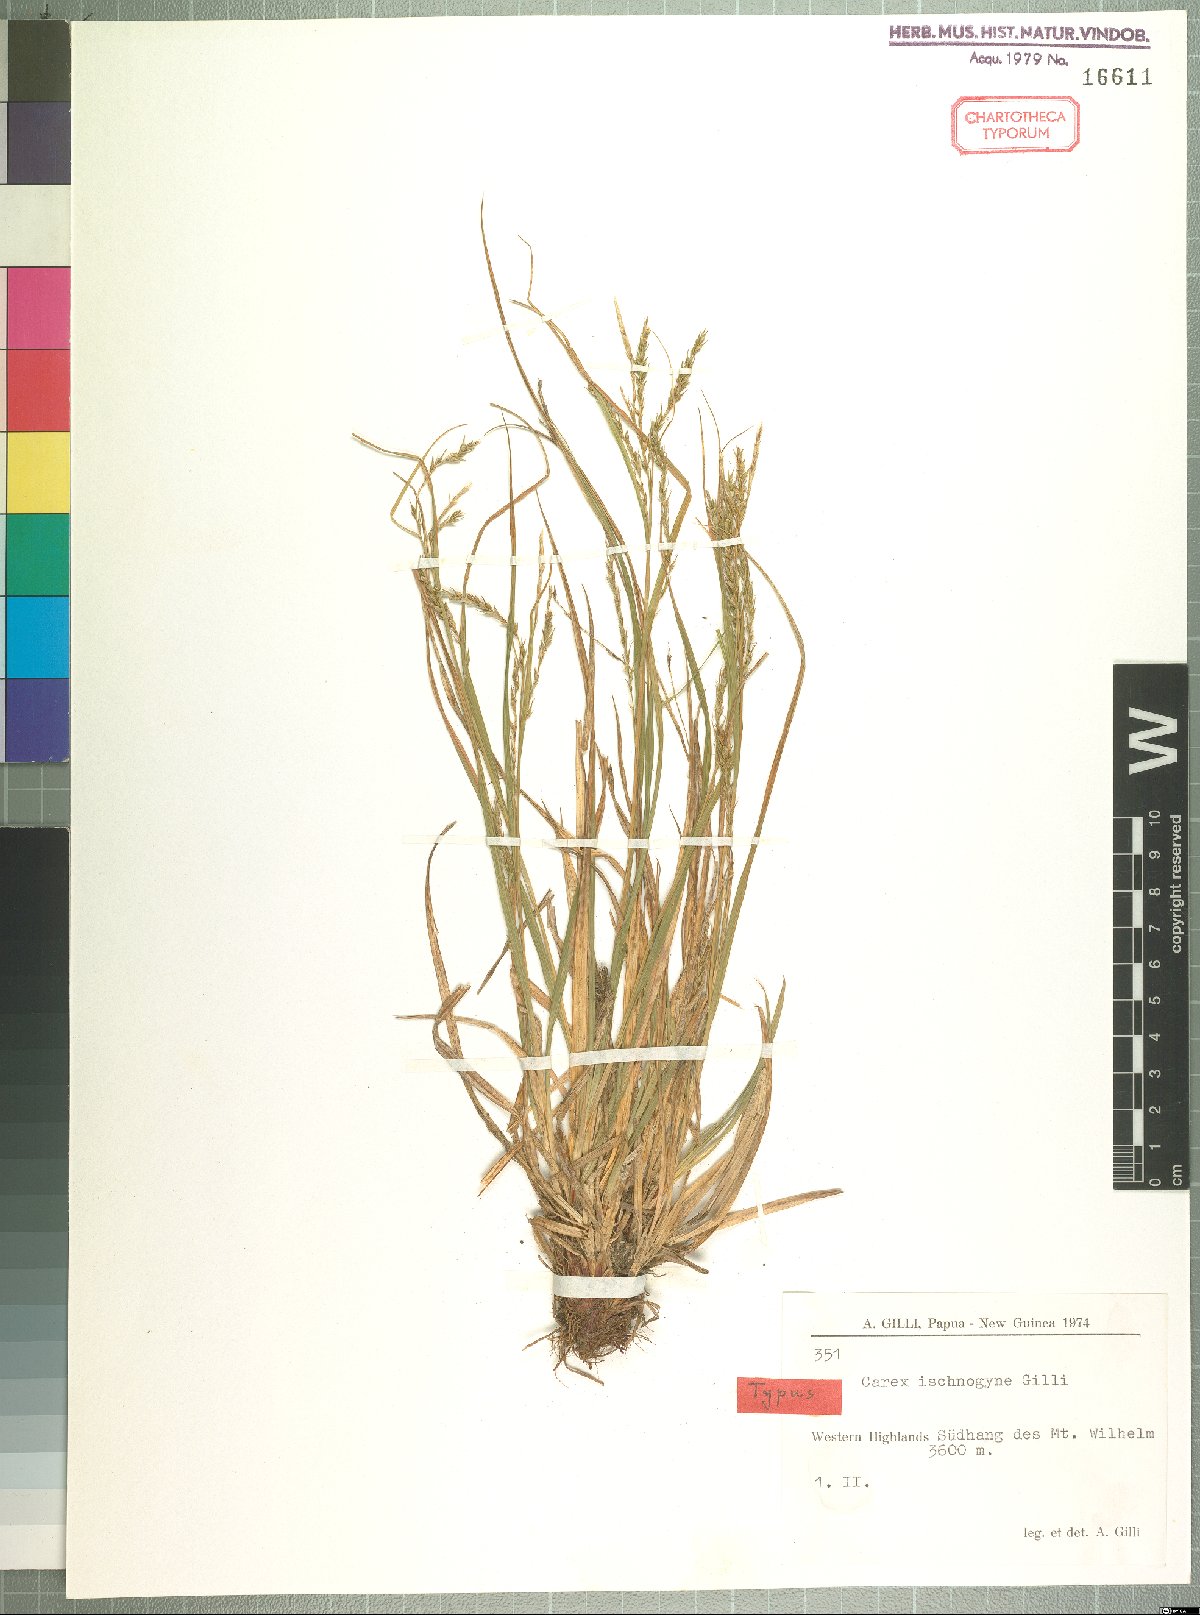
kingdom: Plantae
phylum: Tracheophyta
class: Liliopsida
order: Poales
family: Cyperaceae
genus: Carex
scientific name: Carex ischnogyne
